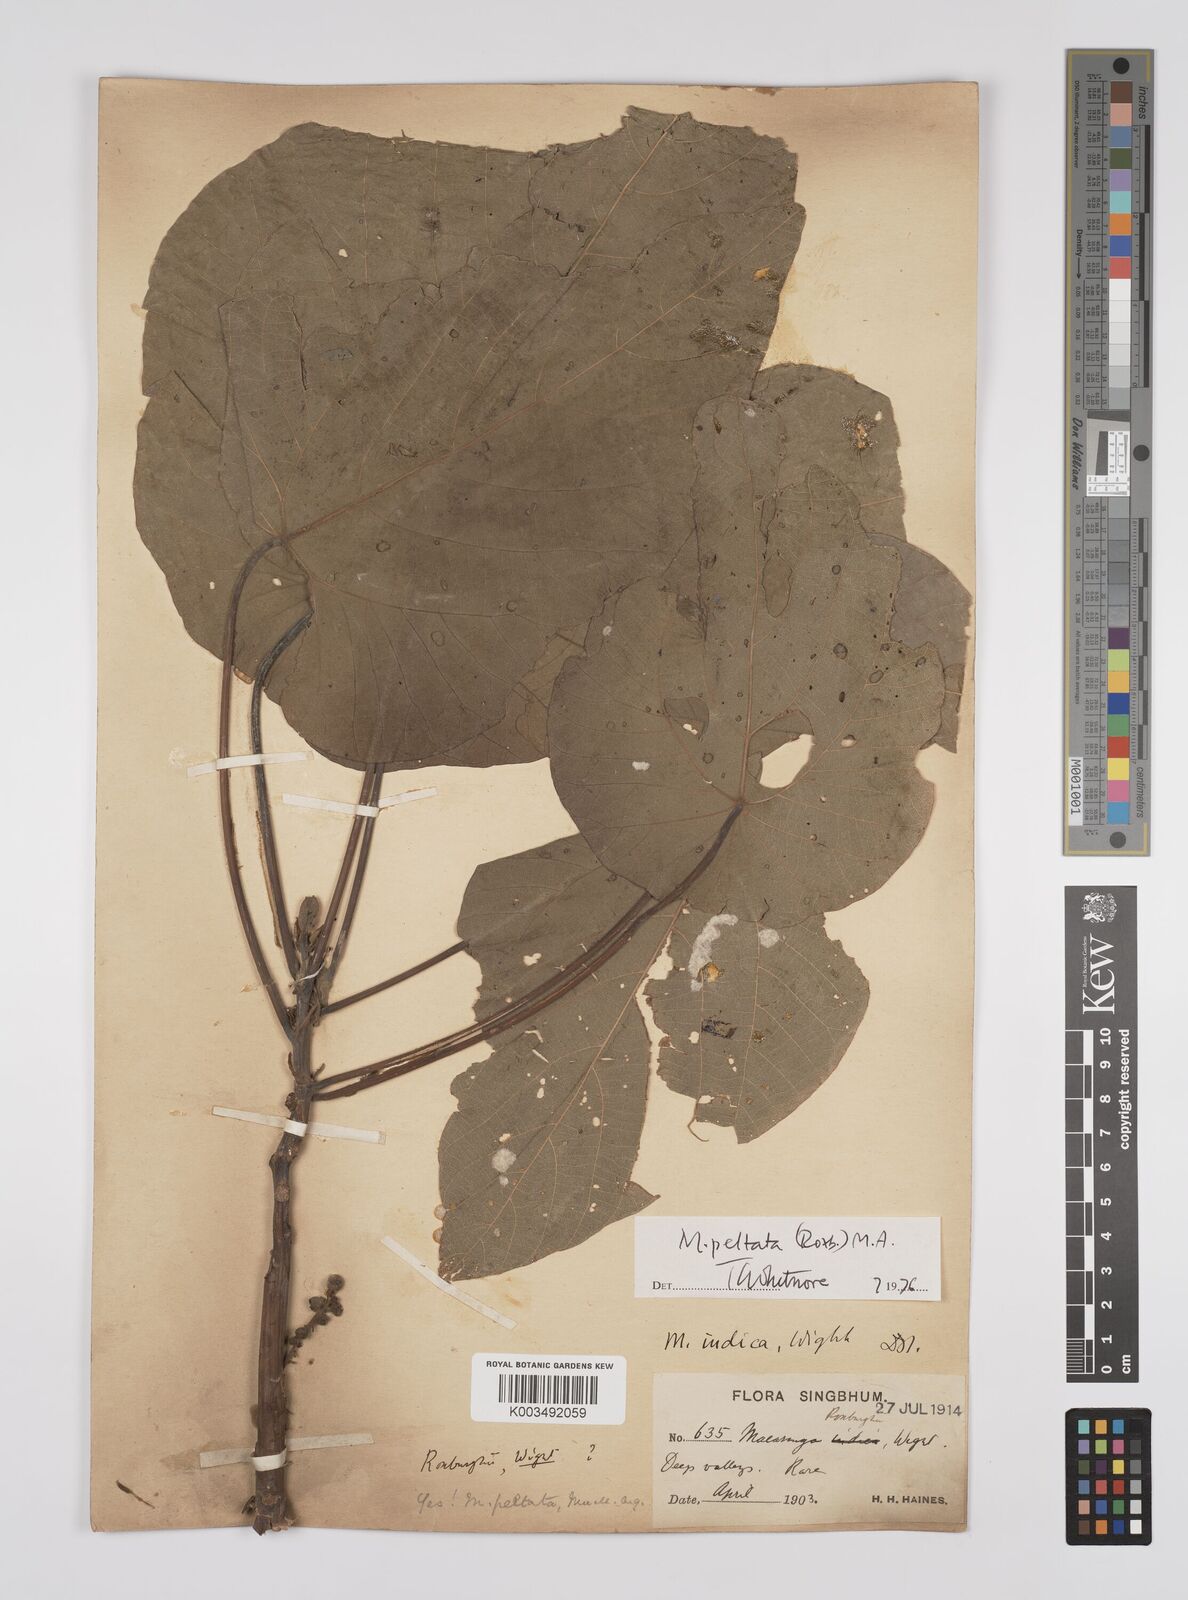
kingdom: Plantae
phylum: Tracheophyta
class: Magnoliopsida
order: Malpighiales
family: Euphorbiaceae
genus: Macaranga
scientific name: Macaranga peltata
